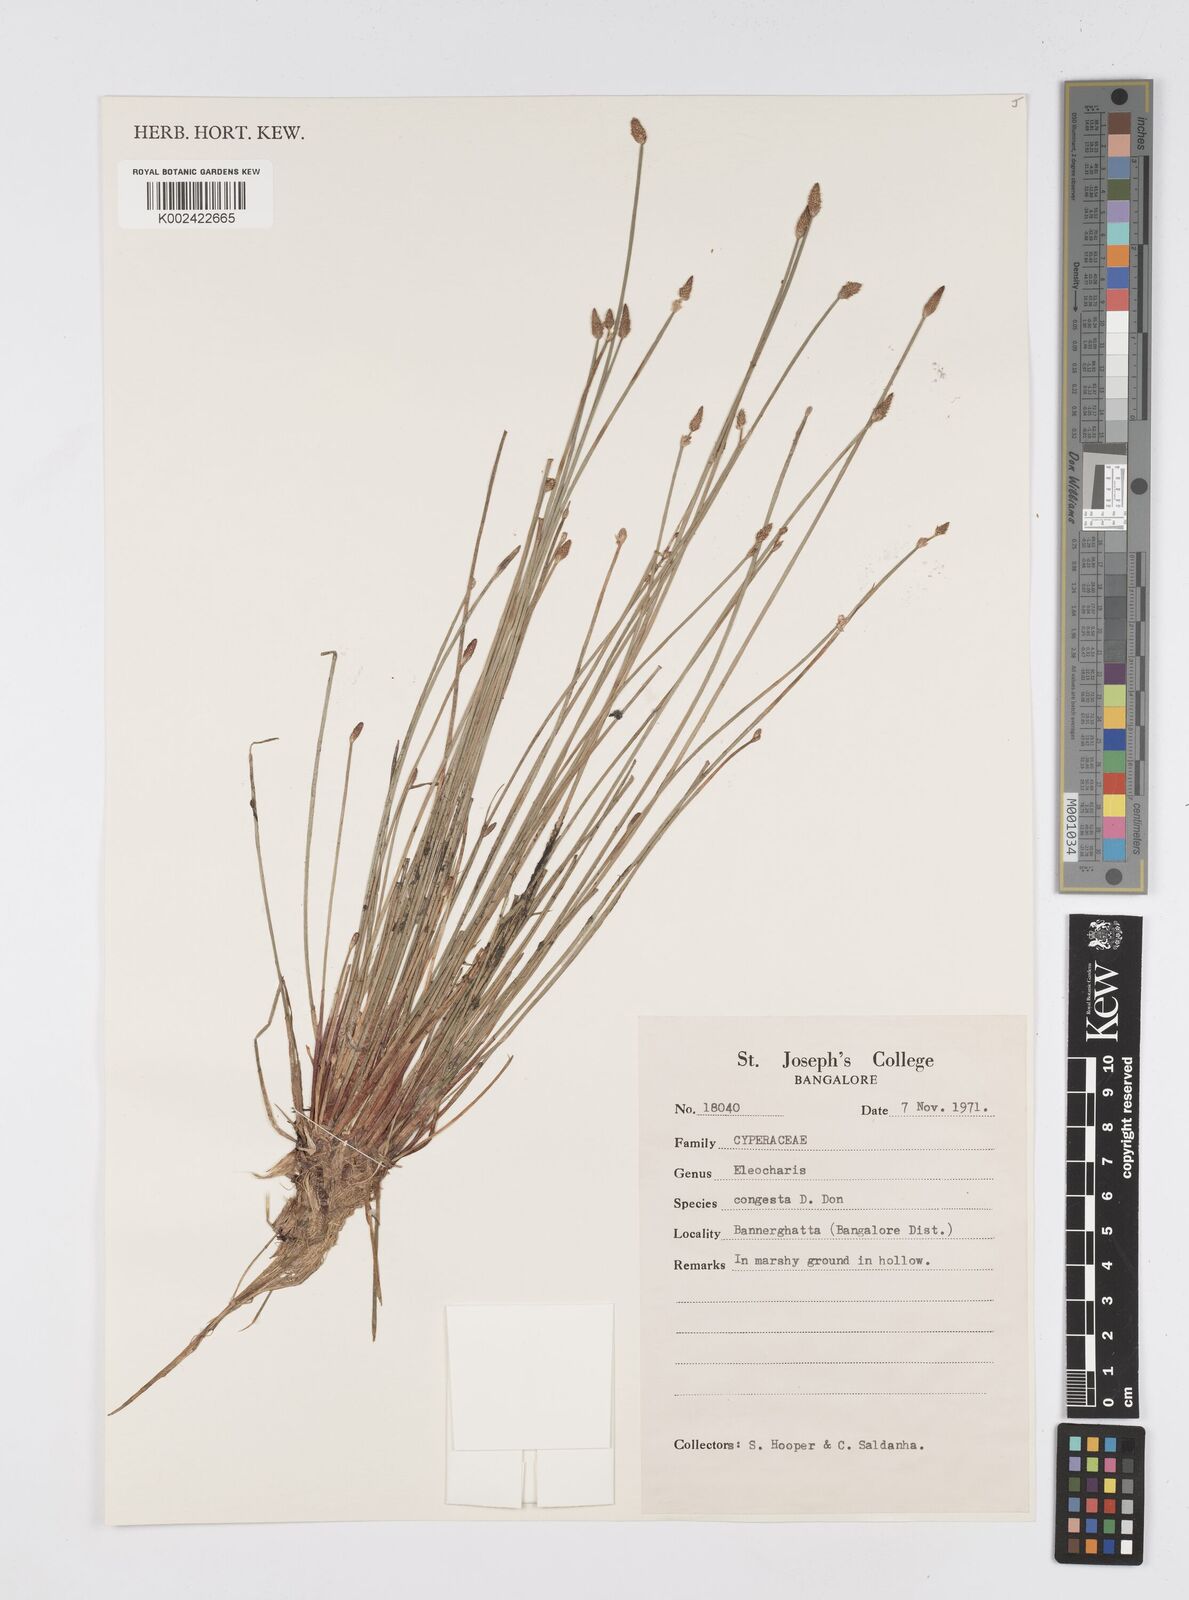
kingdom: Plantae
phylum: Tracheophyta
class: Liliopsida
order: Poales
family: Cyperaceae
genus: Eleocharis
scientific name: Eleocharis congesta
